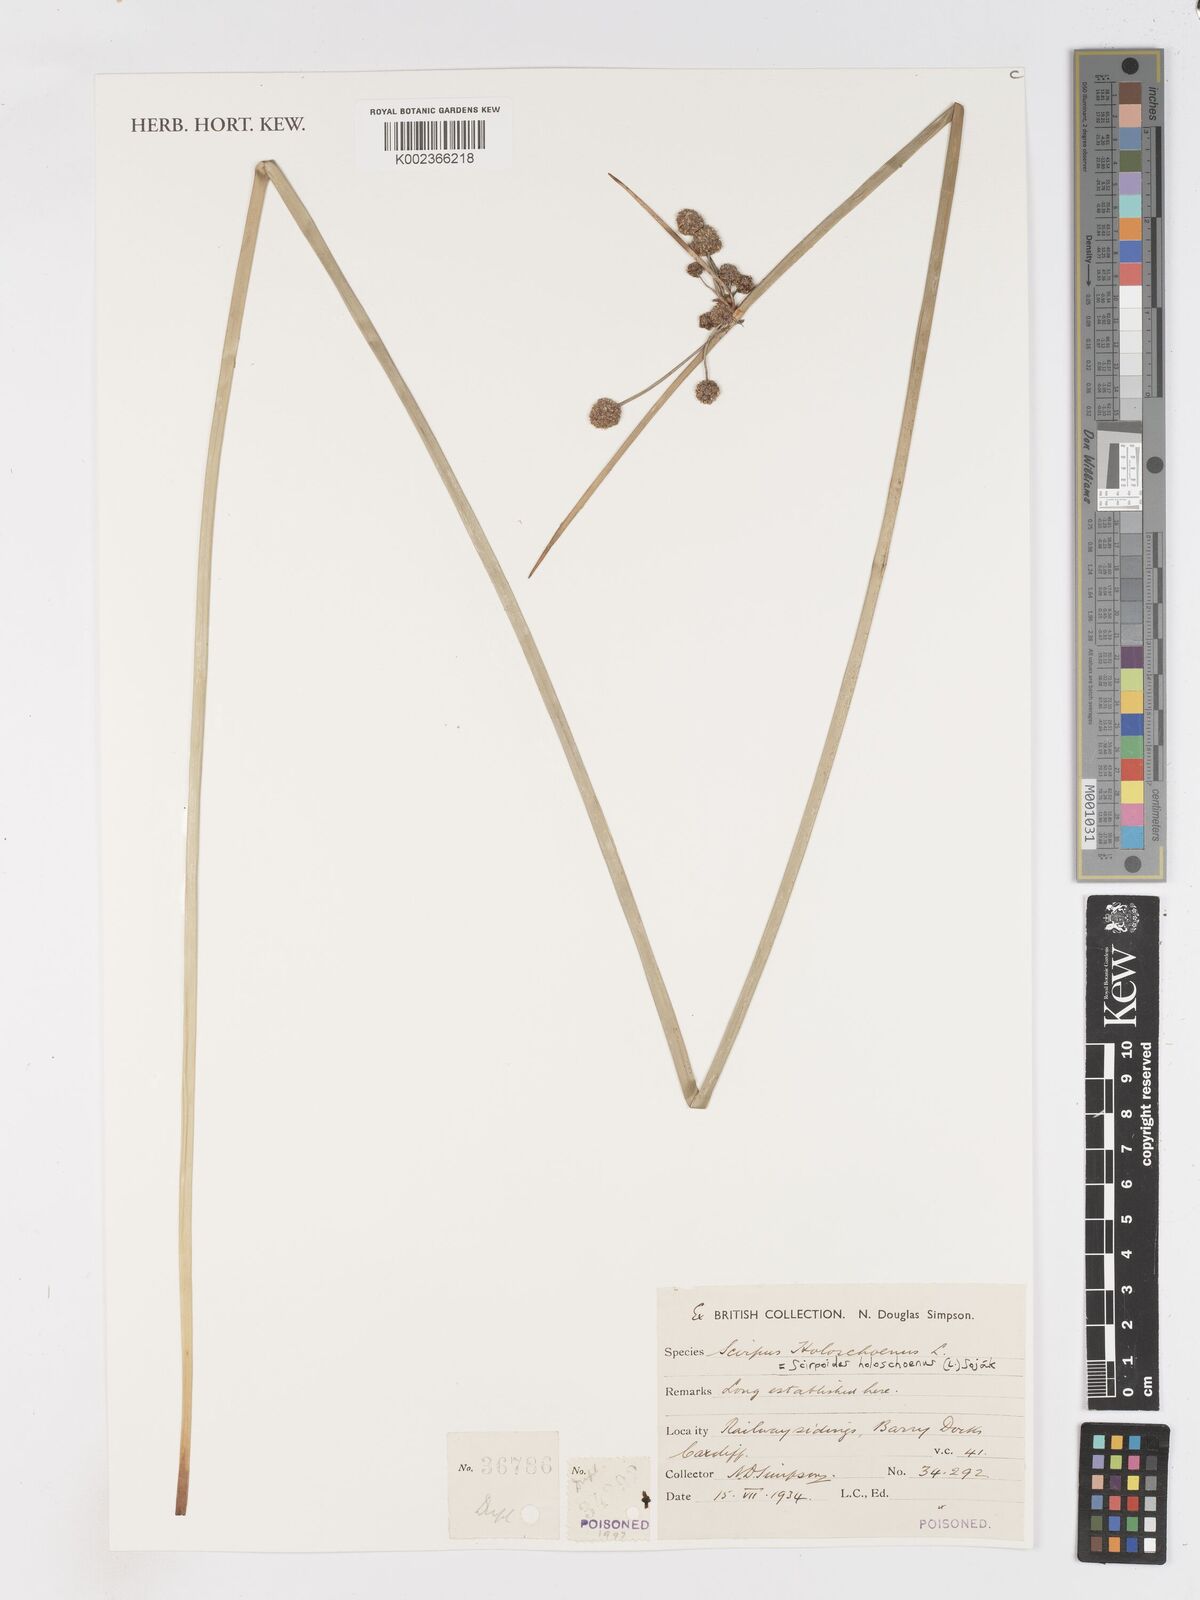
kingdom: Plantae
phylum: Tracheophyta
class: Liliopsida
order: Poales
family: Cyperaceae
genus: Scirpoides
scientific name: Scirpoides holoschoenus
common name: Round-headed club-rush
